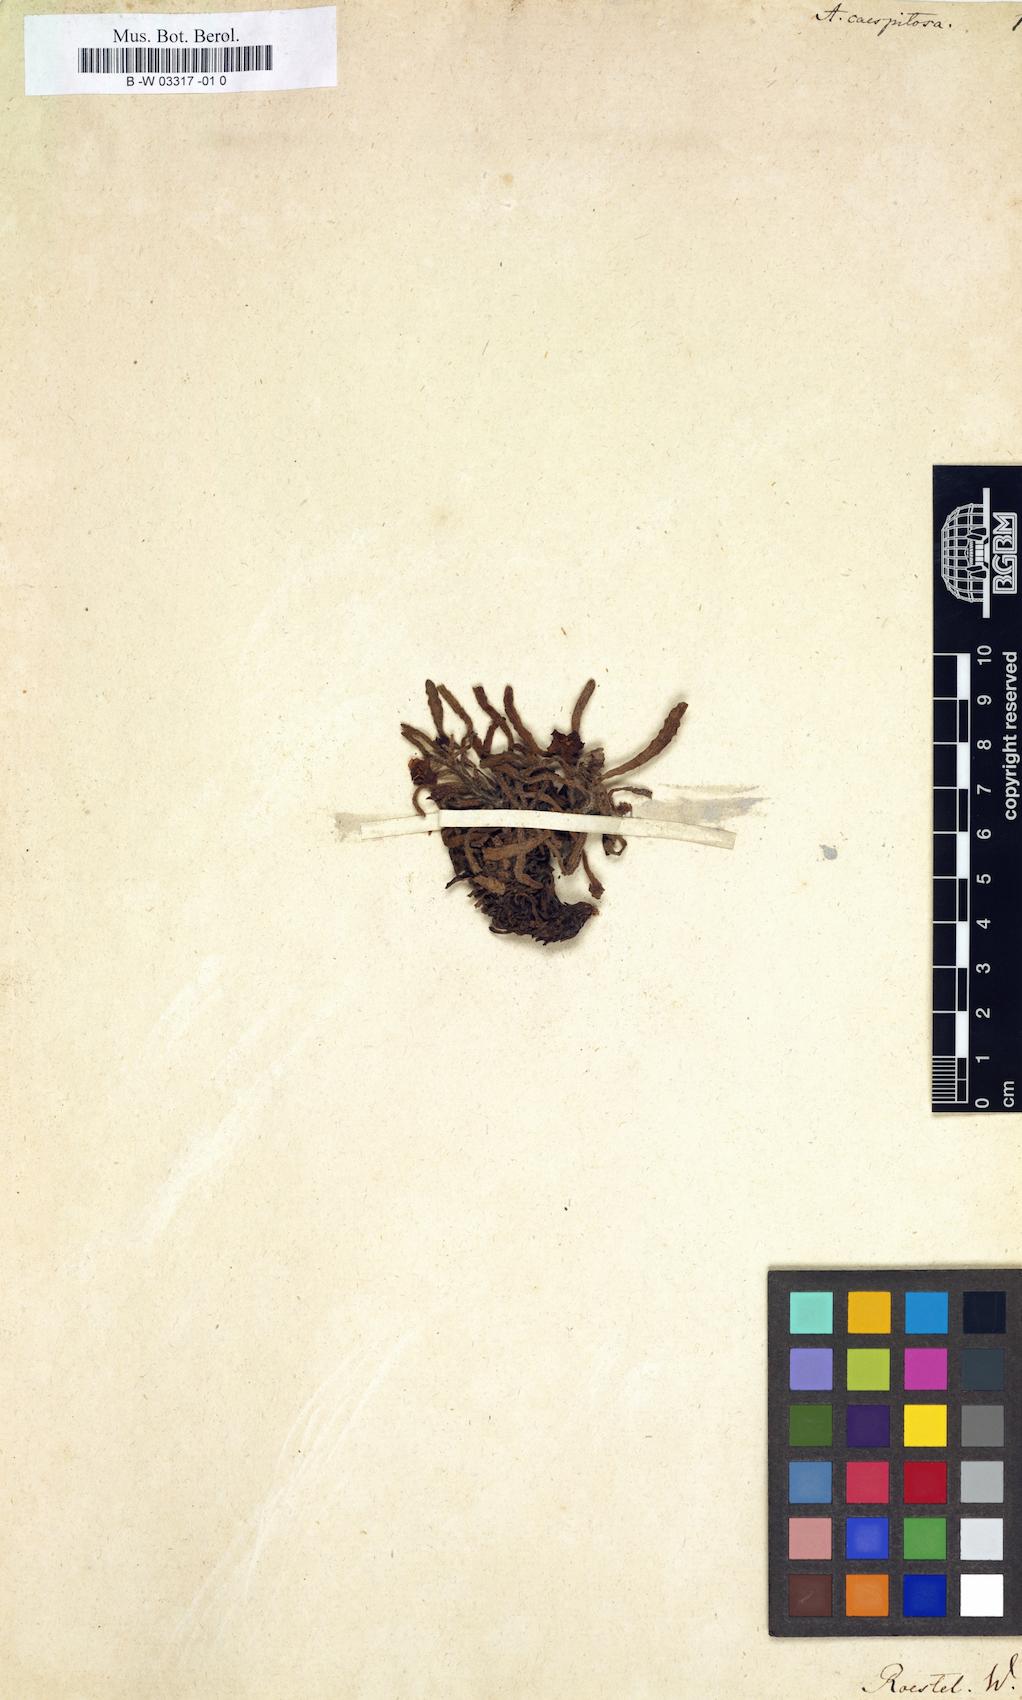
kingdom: Plantae
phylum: Tracheophyta
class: Magnoliopsida
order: Boraginales
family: Boraginaceae
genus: Anchusa
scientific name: Anchusa cespitosa
